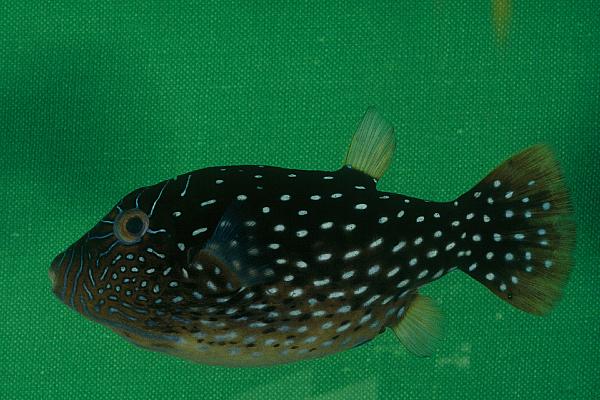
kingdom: Animalia
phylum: Chordata
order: Tetraodontiformes
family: Tetraodontidae
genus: Canthigaster
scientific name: Canthigaster amboinensis
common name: Ambon pufferfish
